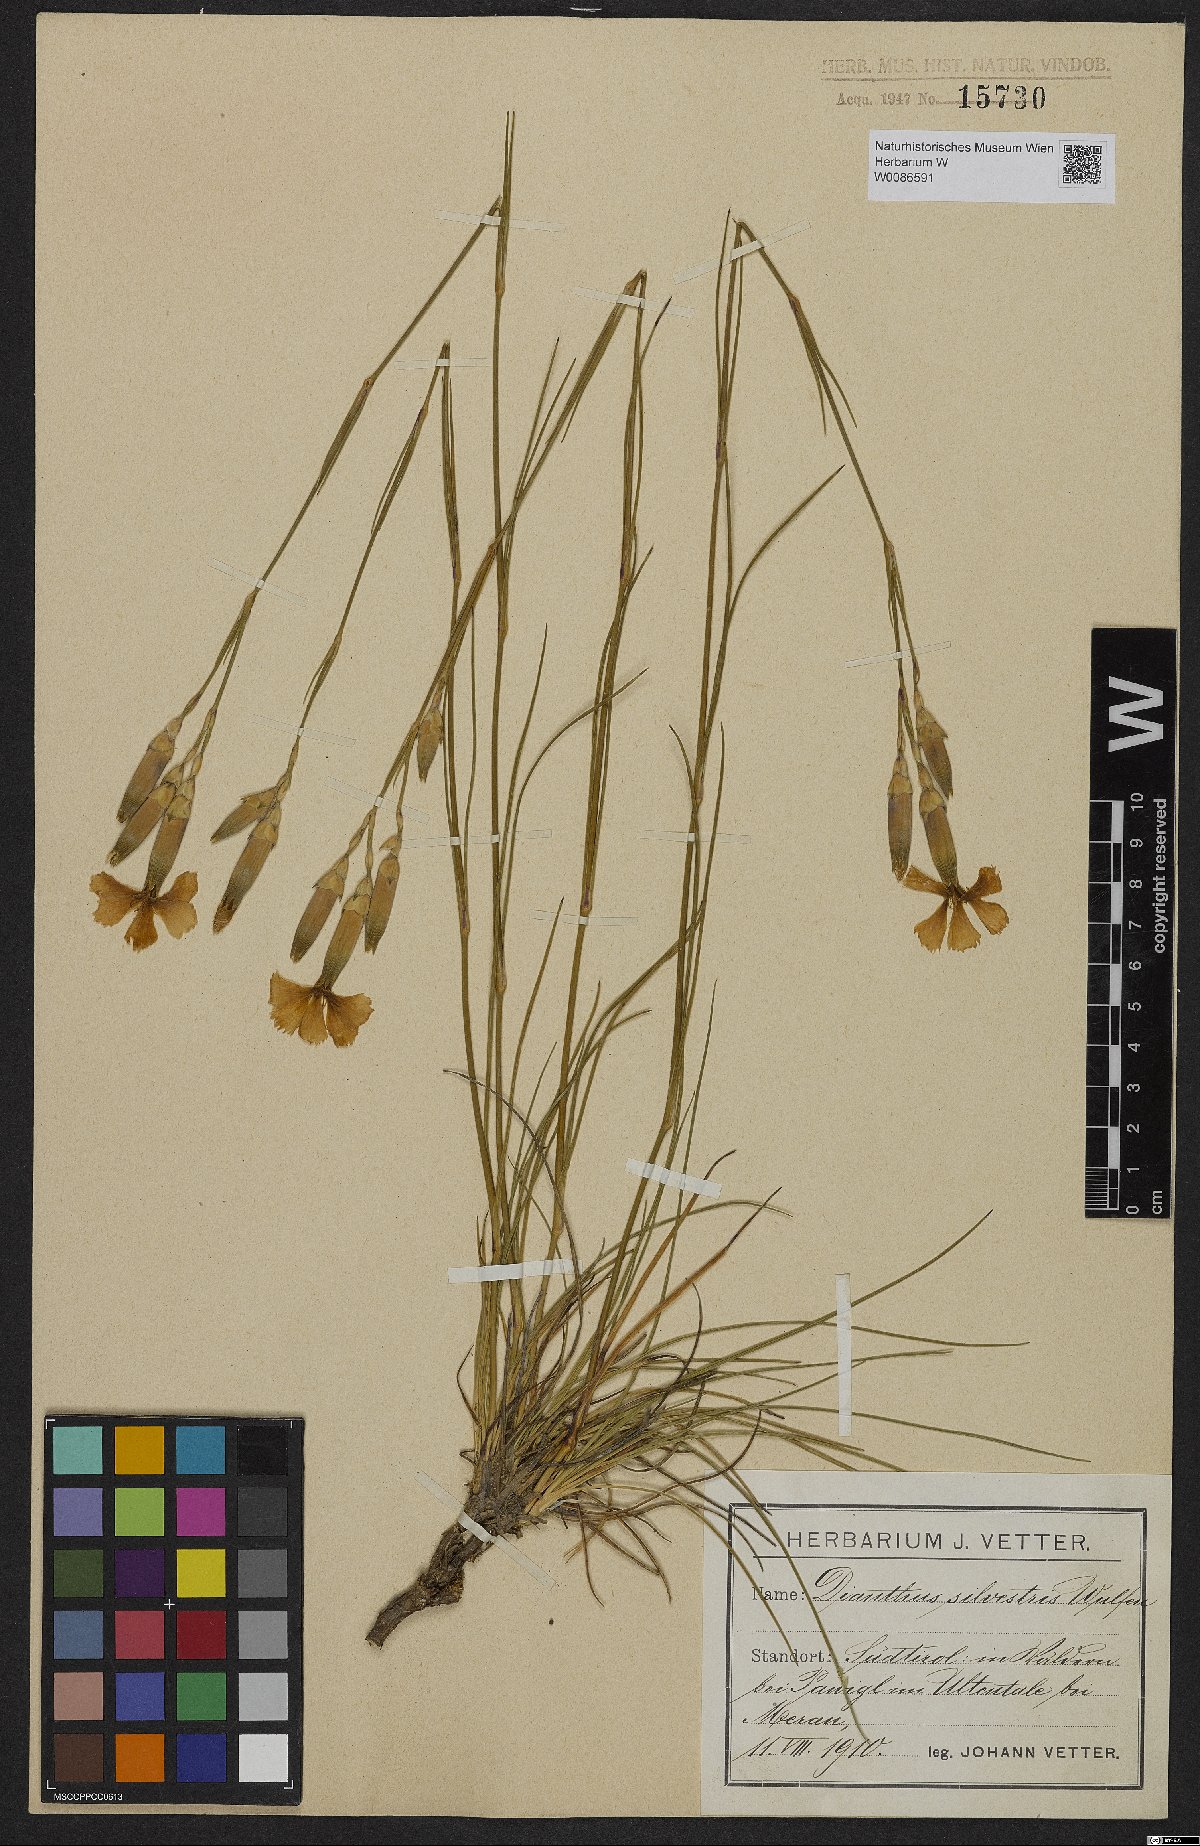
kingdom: Plantae
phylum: Tracheophyta
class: Magnoliopsida
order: Caryophyllales
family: Caryophyllaceae
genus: Dianthus
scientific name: Dianthus sylvestris
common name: Wood pink
